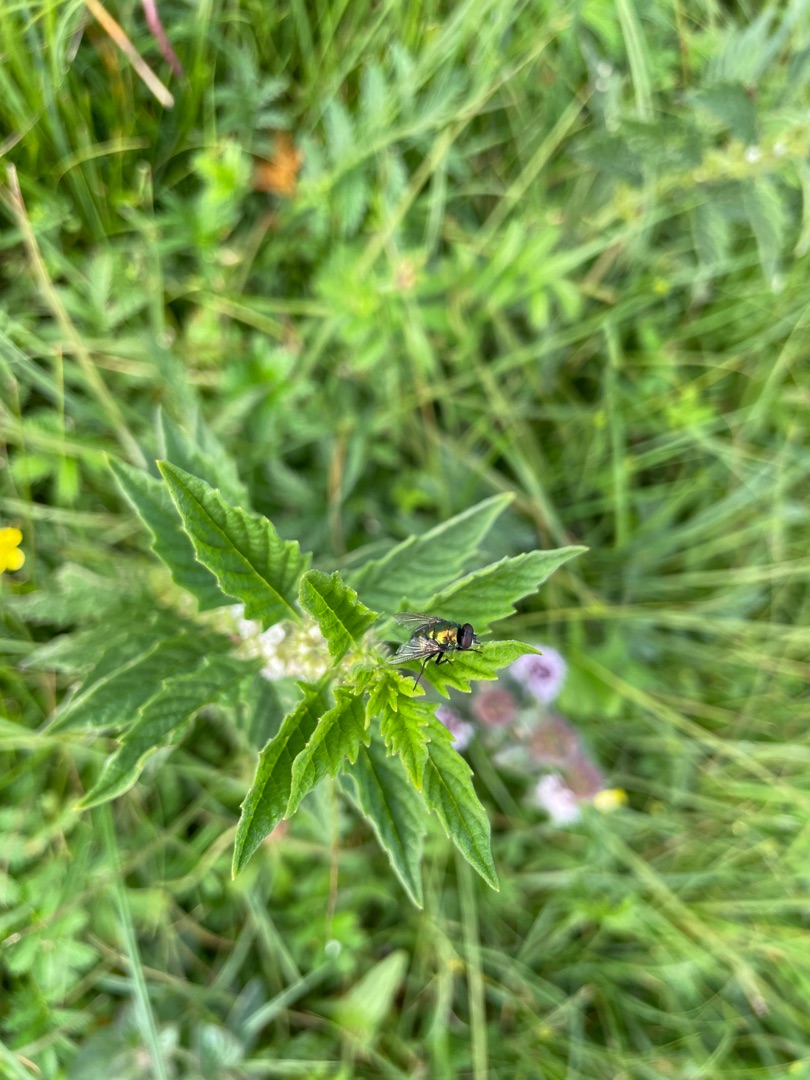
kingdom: Plantae
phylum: Tracheophyta
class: Magnoliopsida
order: Lamiales
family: Lamiaceae
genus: Lycopus
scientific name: Lycopus europaeus
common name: Sværtevæld
